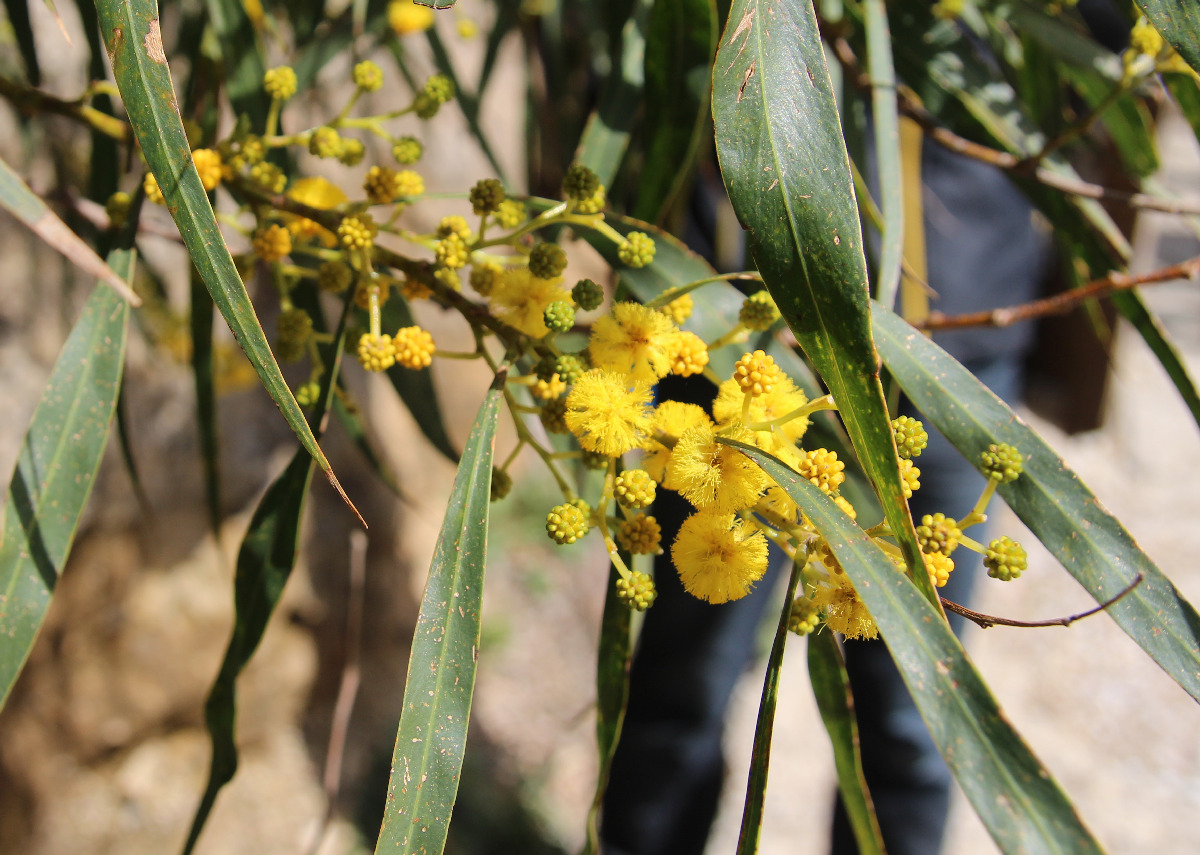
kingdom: Plantae
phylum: Tracheophyta
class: Magnoliopsida
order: Fabales
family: Fabaceae
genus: Acacia
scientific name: Acacia saligna
